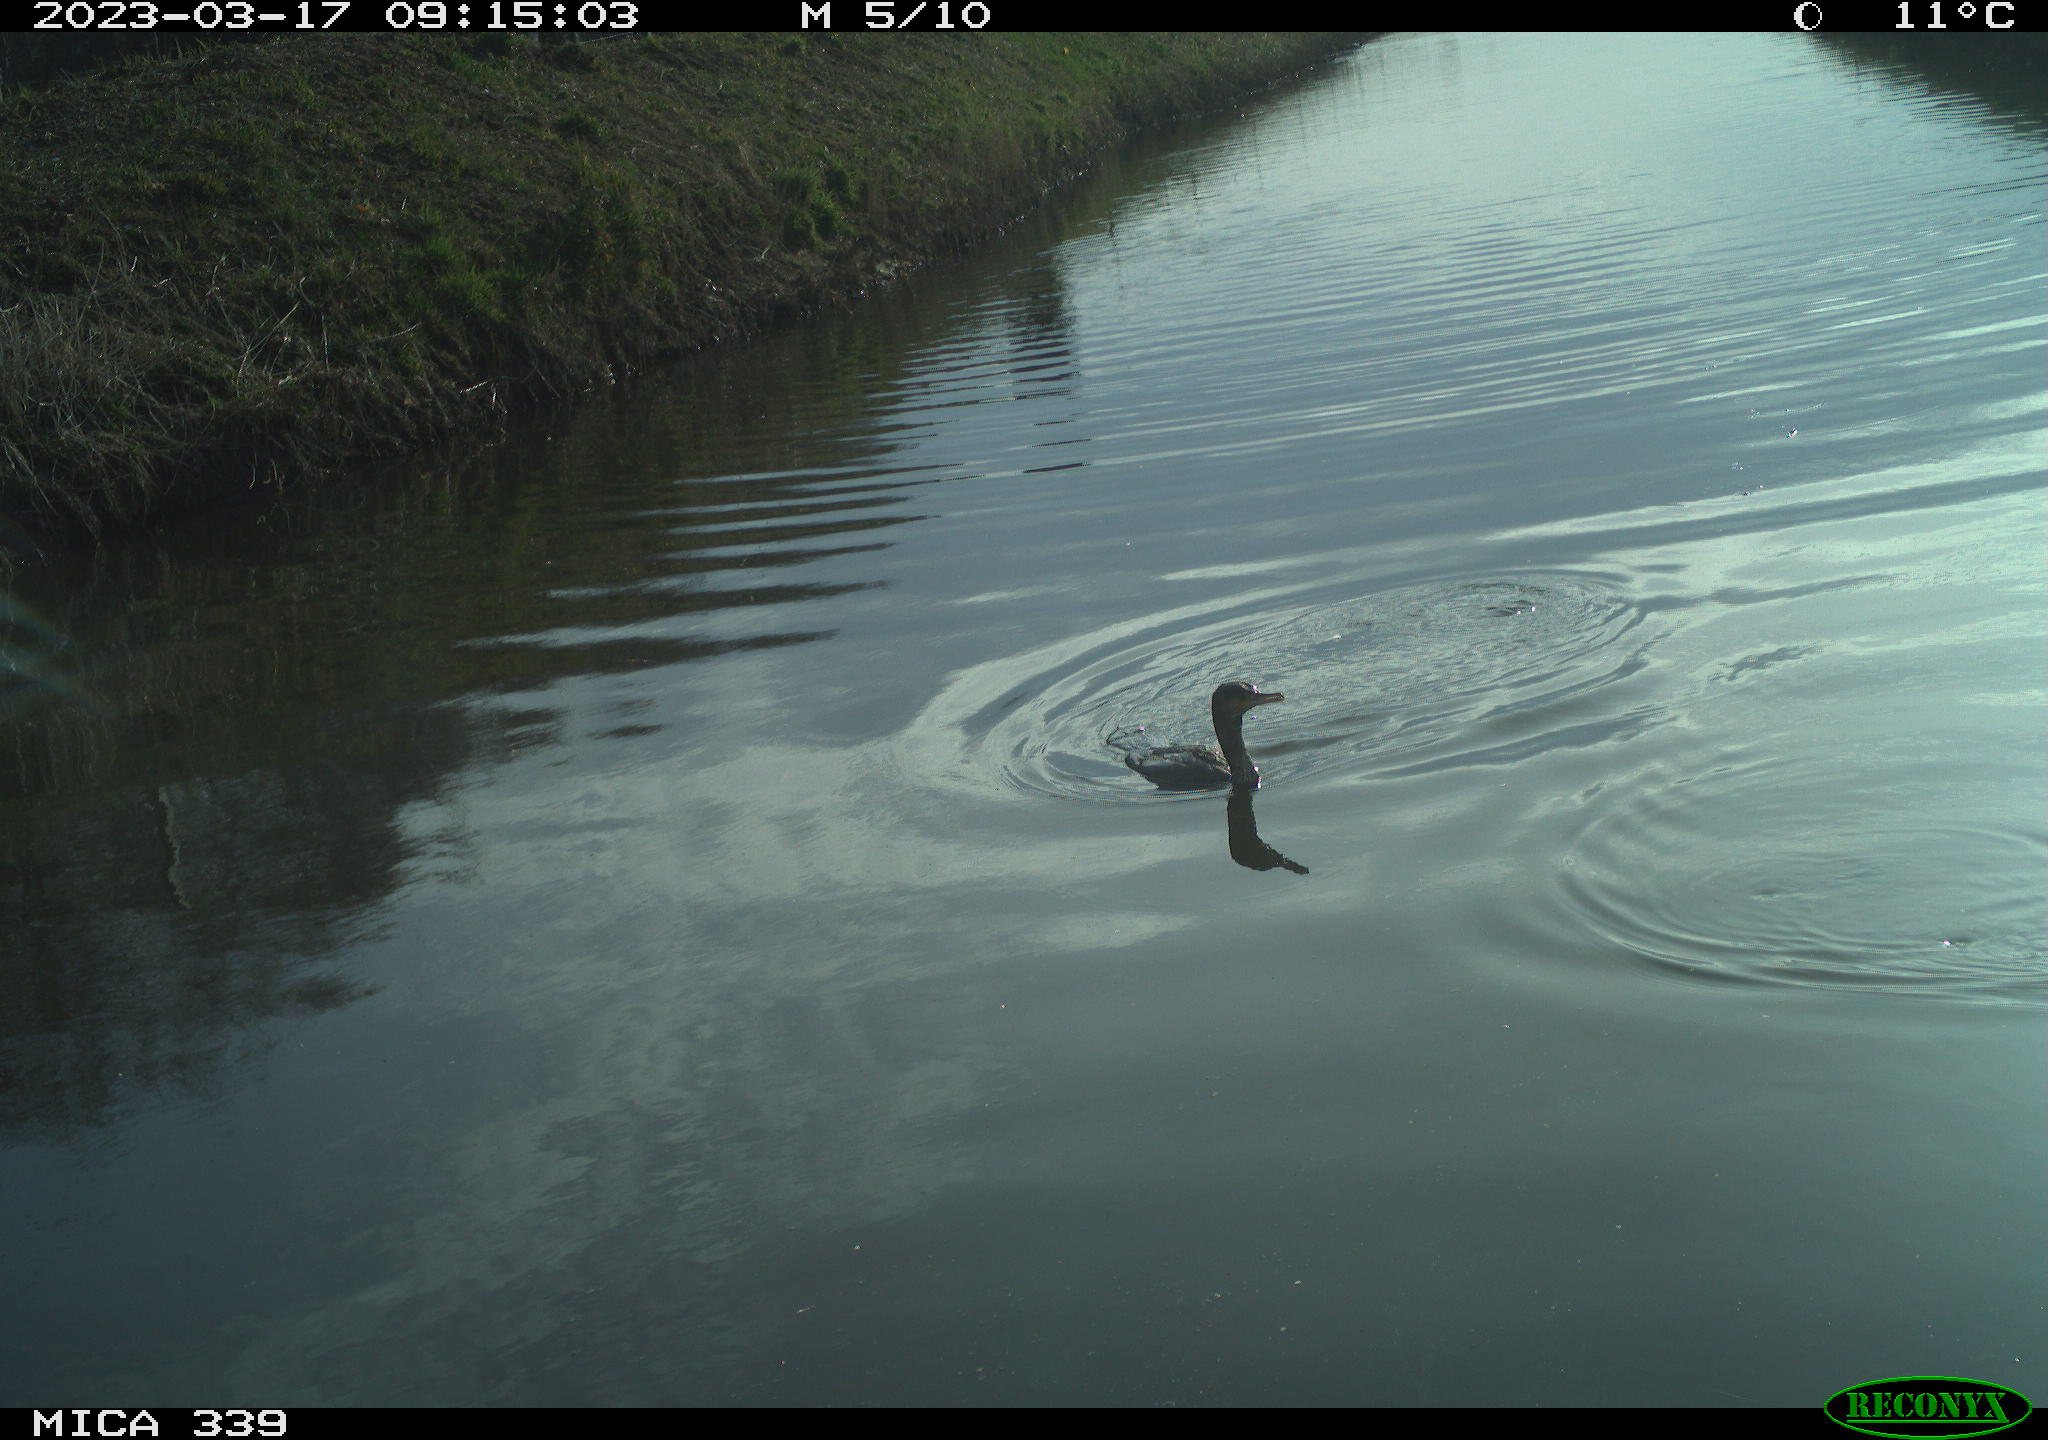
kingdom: Animalia
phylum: Chordata
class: Aves
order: Anseriformes
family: Anatidae
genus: Anas
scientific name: Anas
